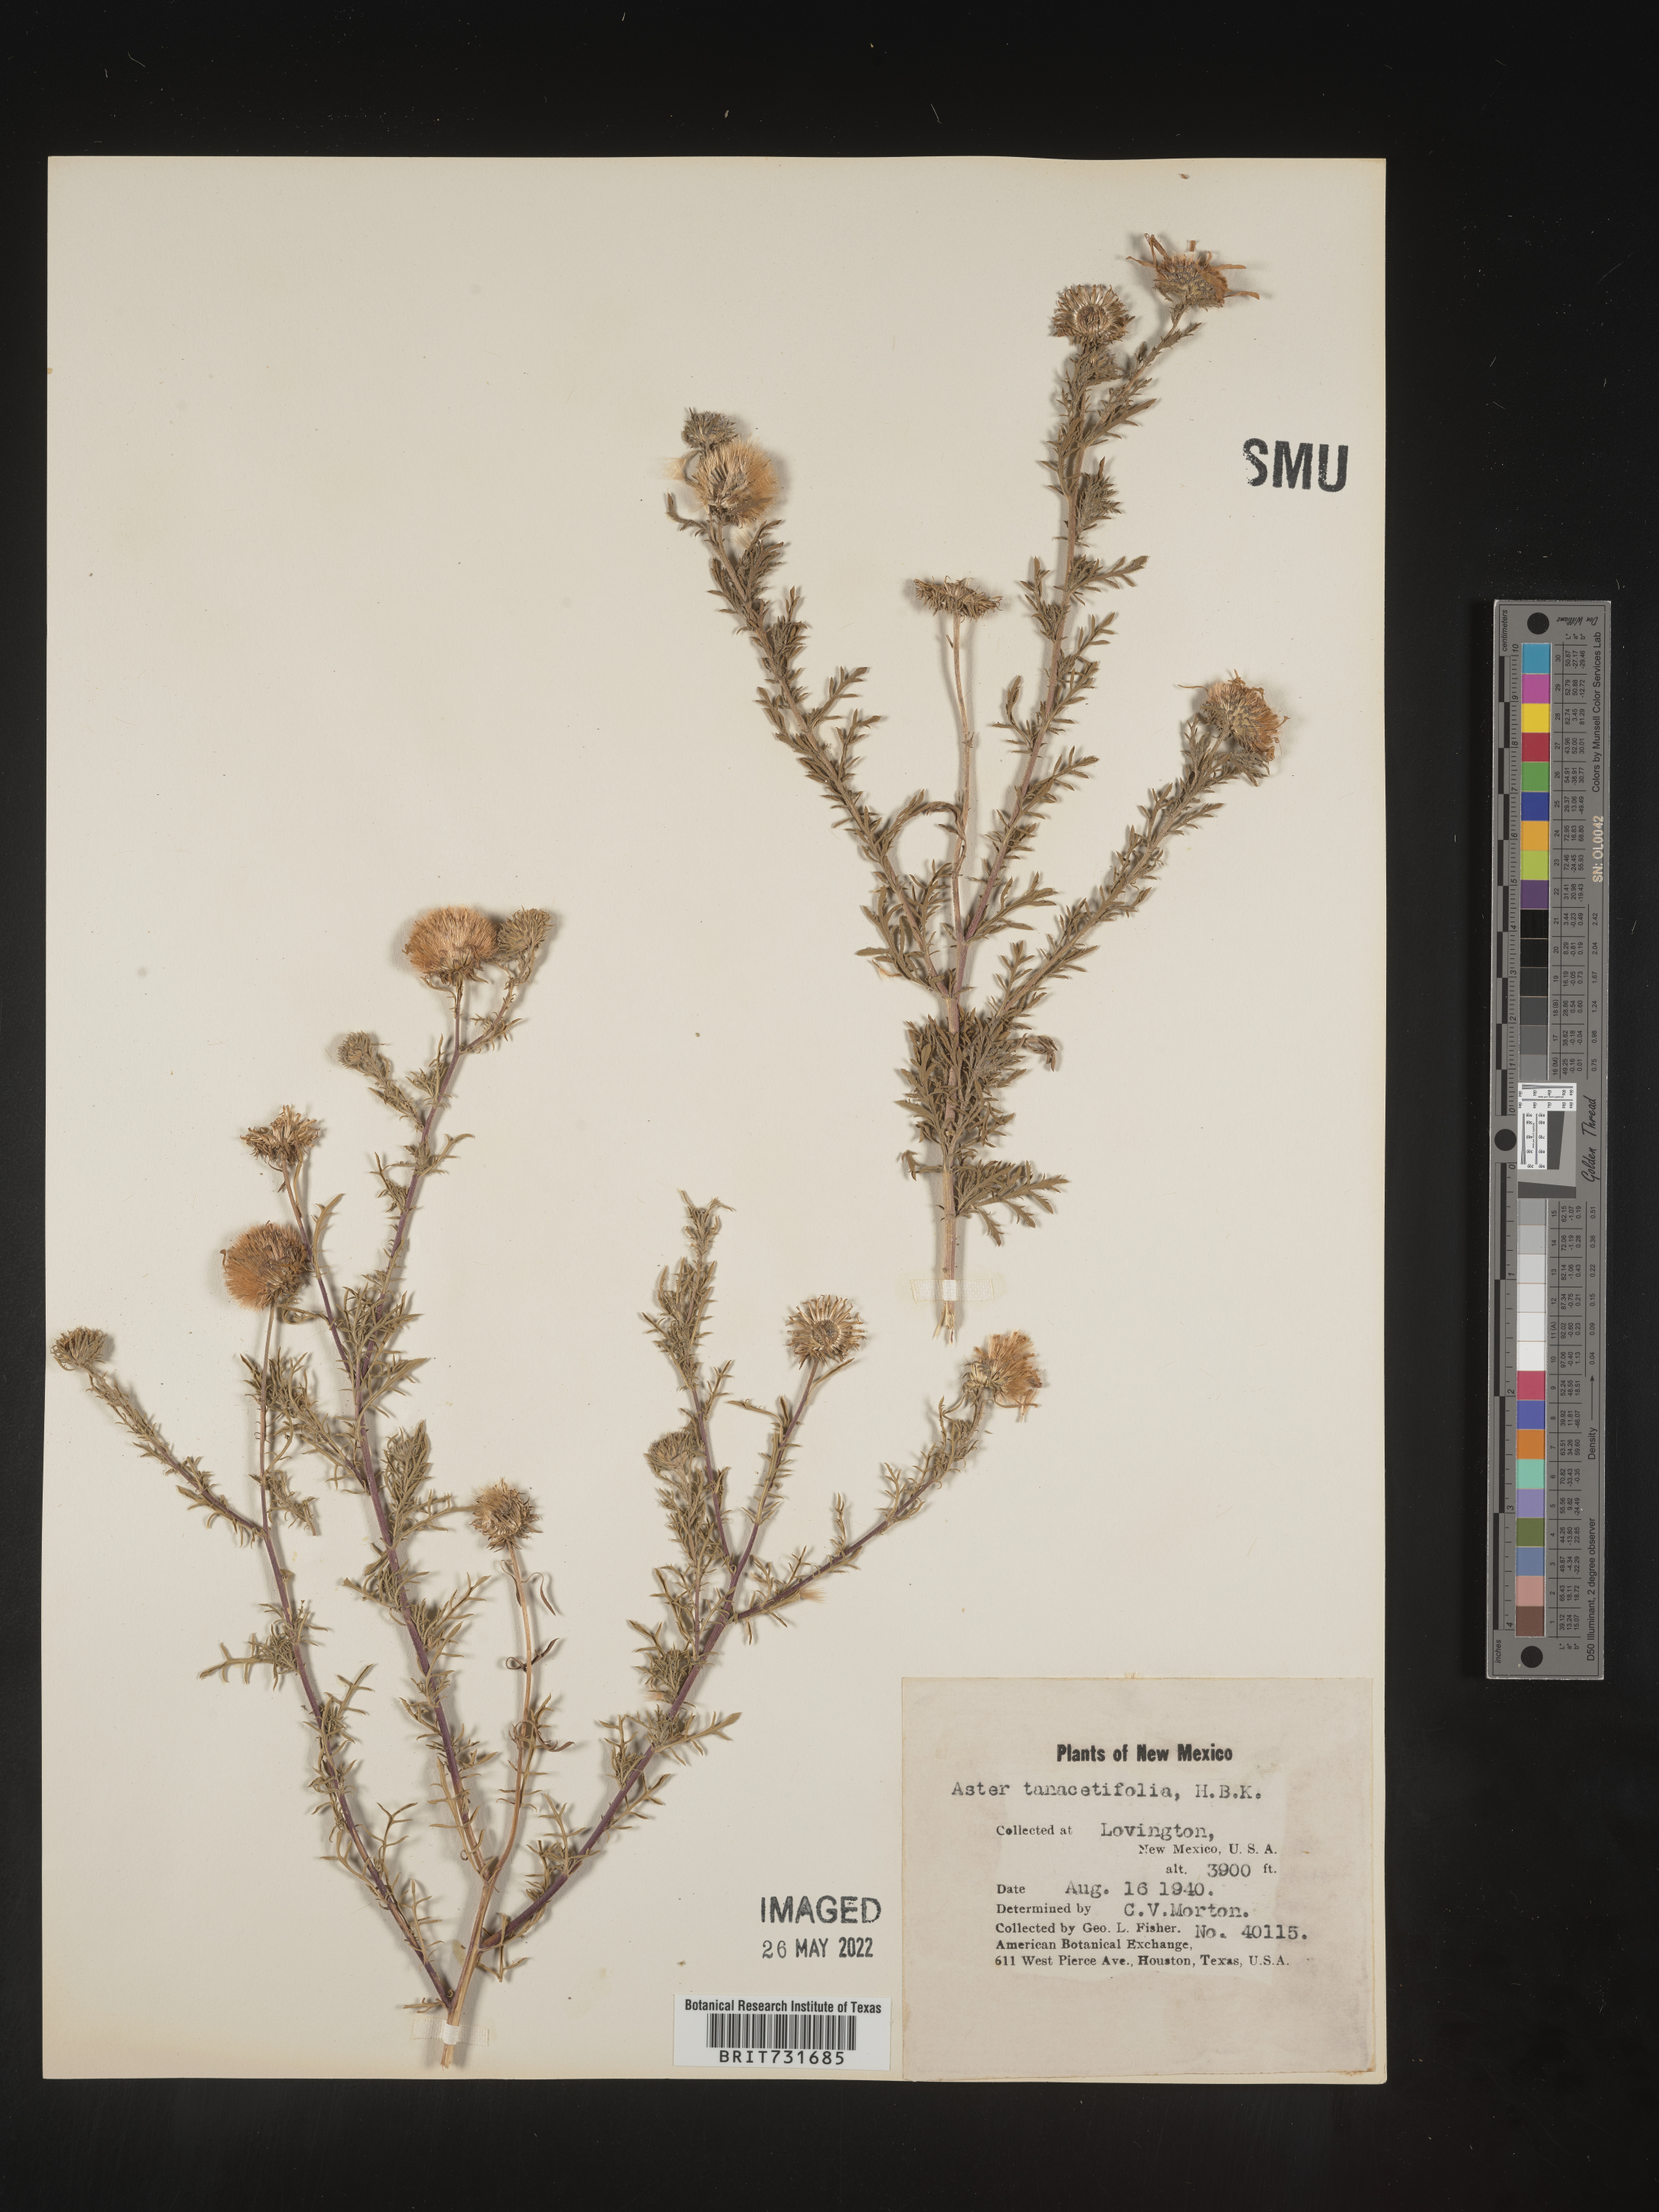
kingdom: Plantae
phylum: Tracheophyta
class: Magnoliopsida
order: Asterales
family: Asteraceae
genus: Machaeranthera
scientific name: Machaeranthera tanacetifolia
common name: Tansy-aster
